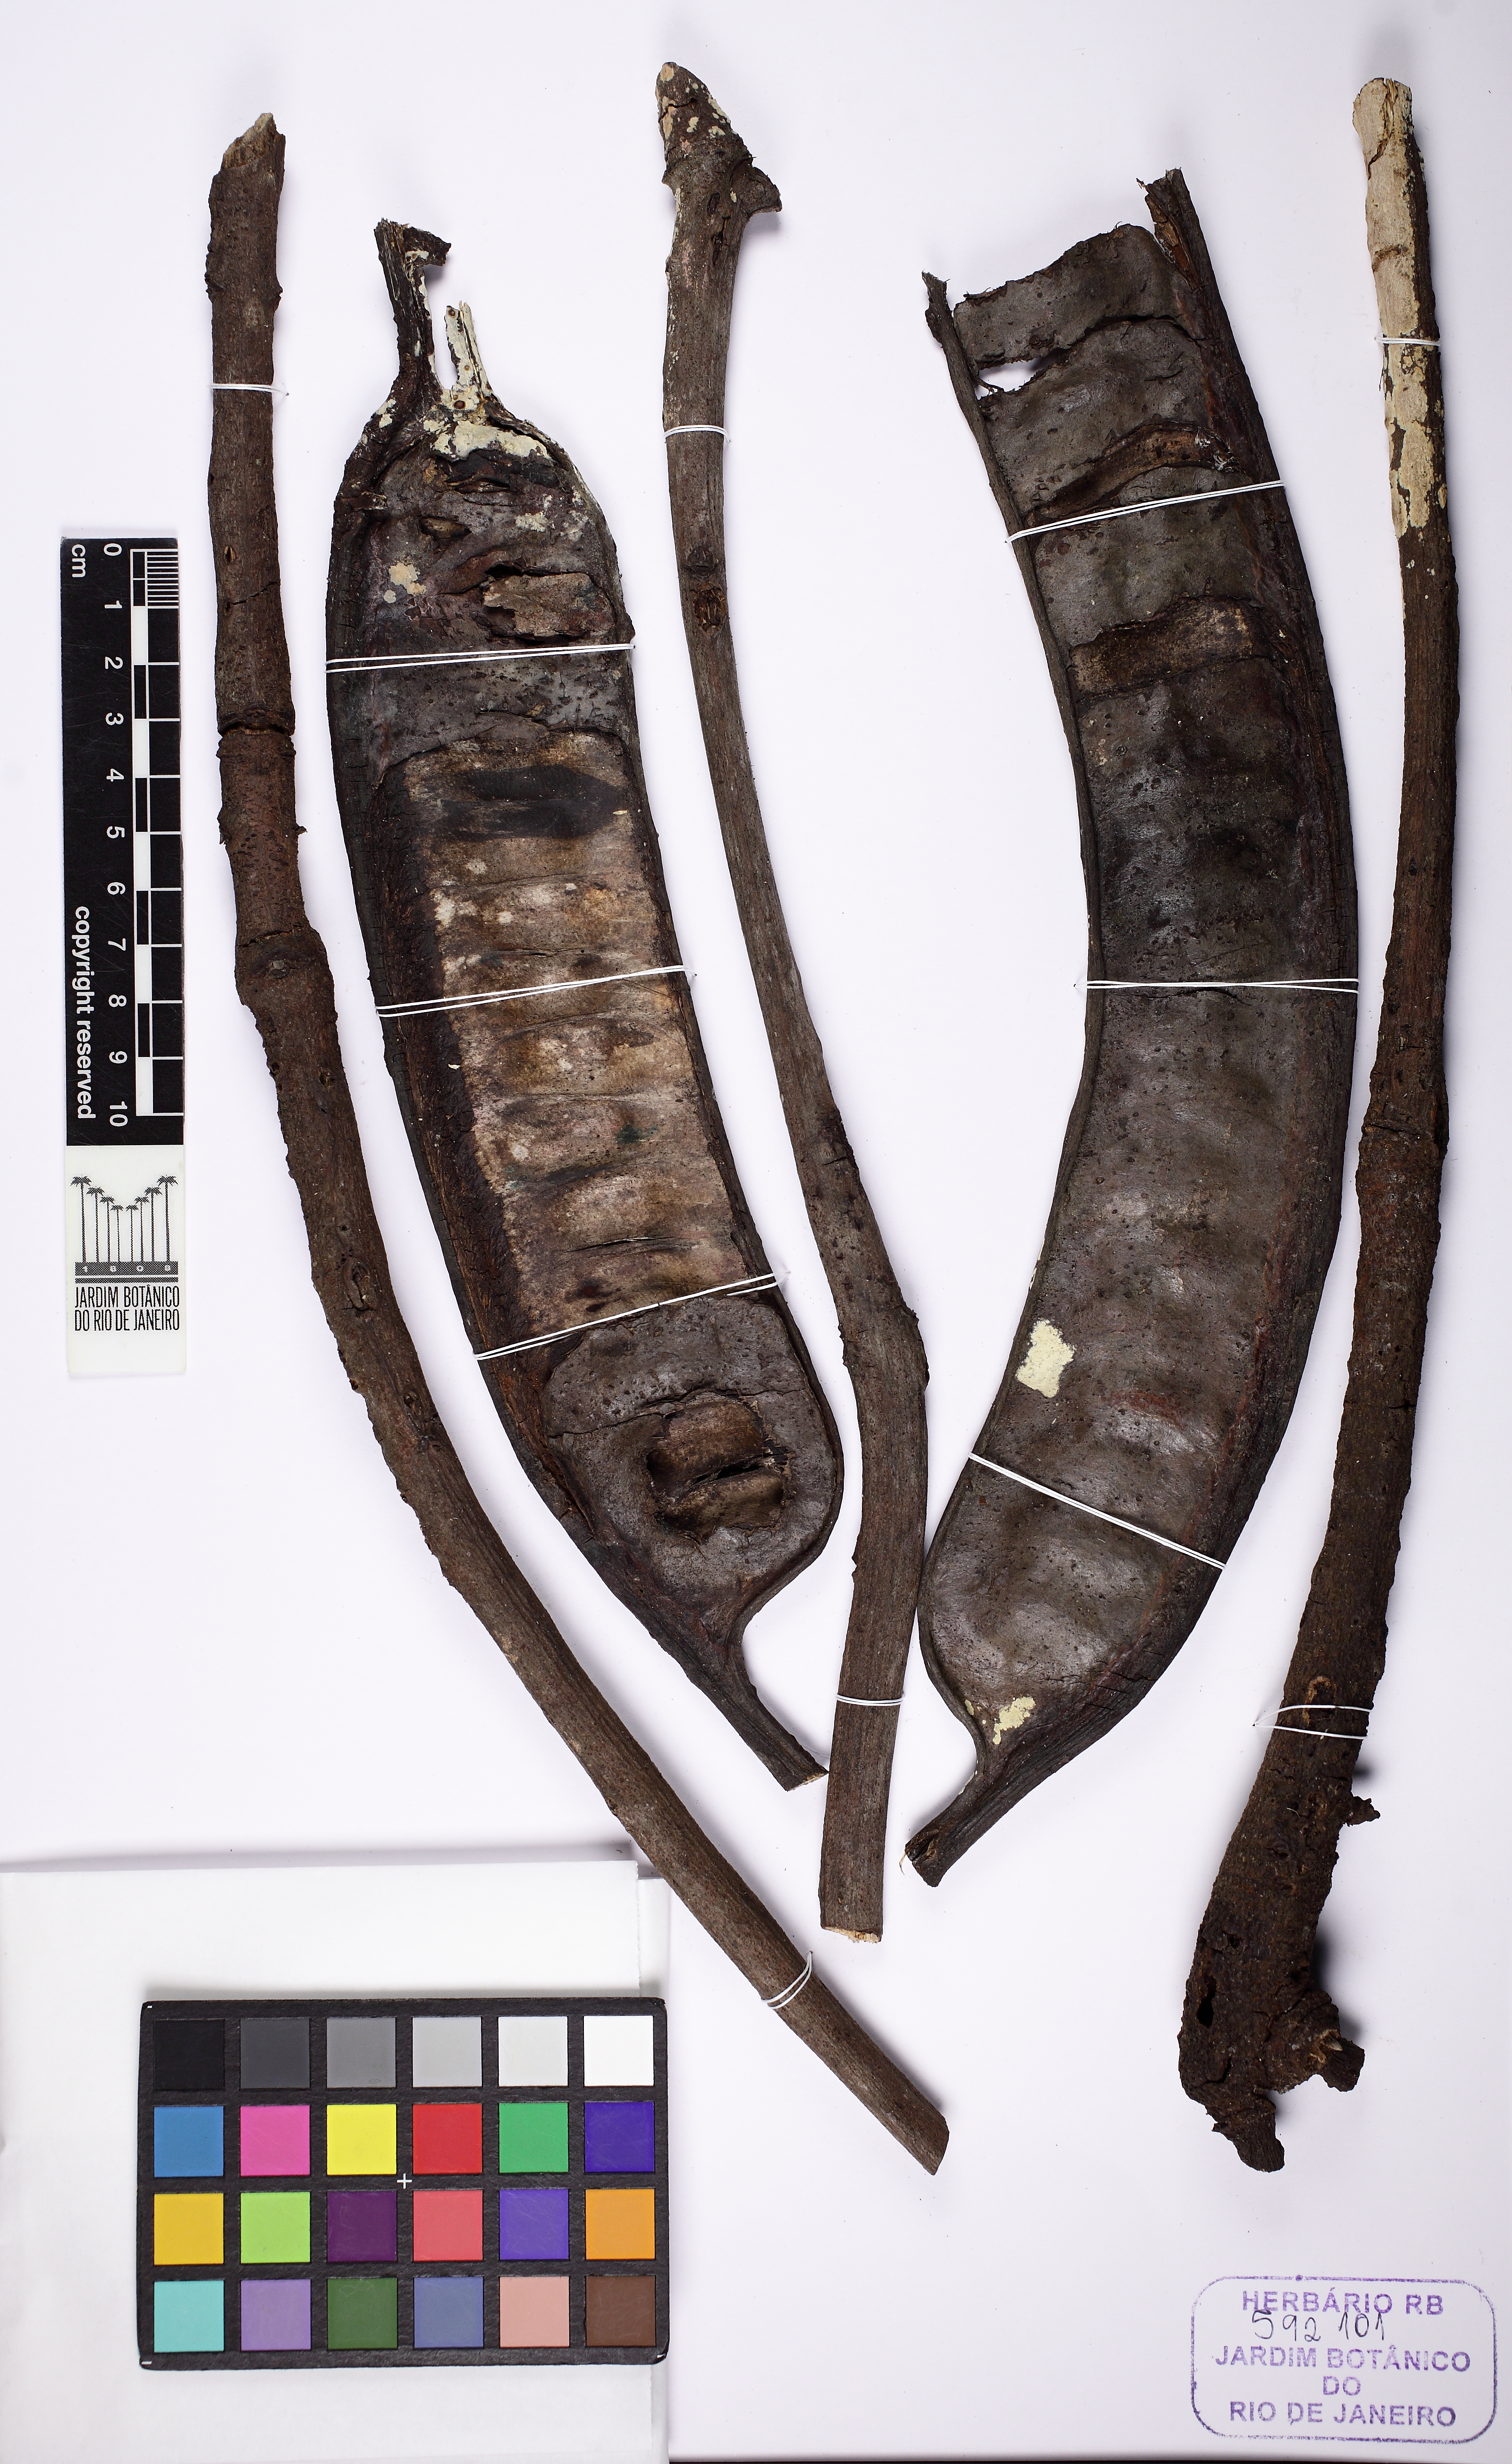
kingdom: Plantae
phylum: Tracheophyta
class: Magnoliopsida
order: Fabales
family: Fabaceae
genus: Parkia
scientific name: Parkia nitida
